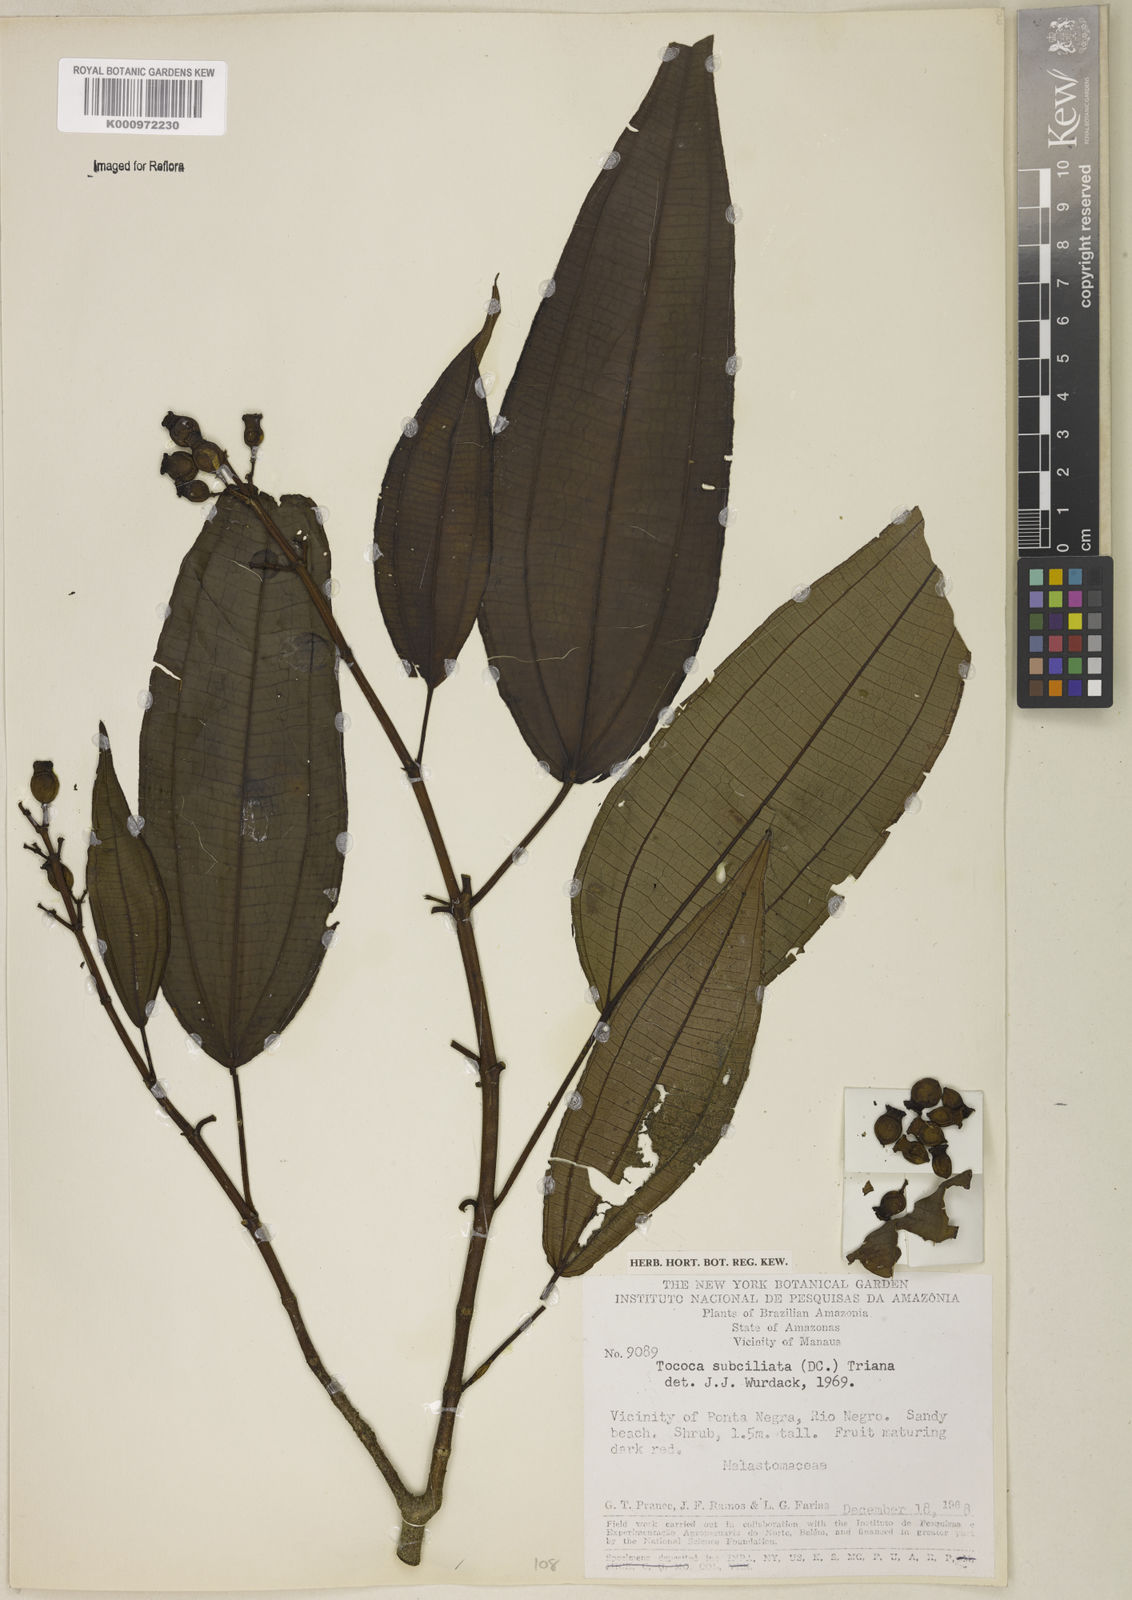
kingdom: Plantae
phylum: Tracheophyta
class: Magnoliopsida
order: Myrtales
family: Melastomataceae
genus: Miconia
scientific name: Miconia subciliata
